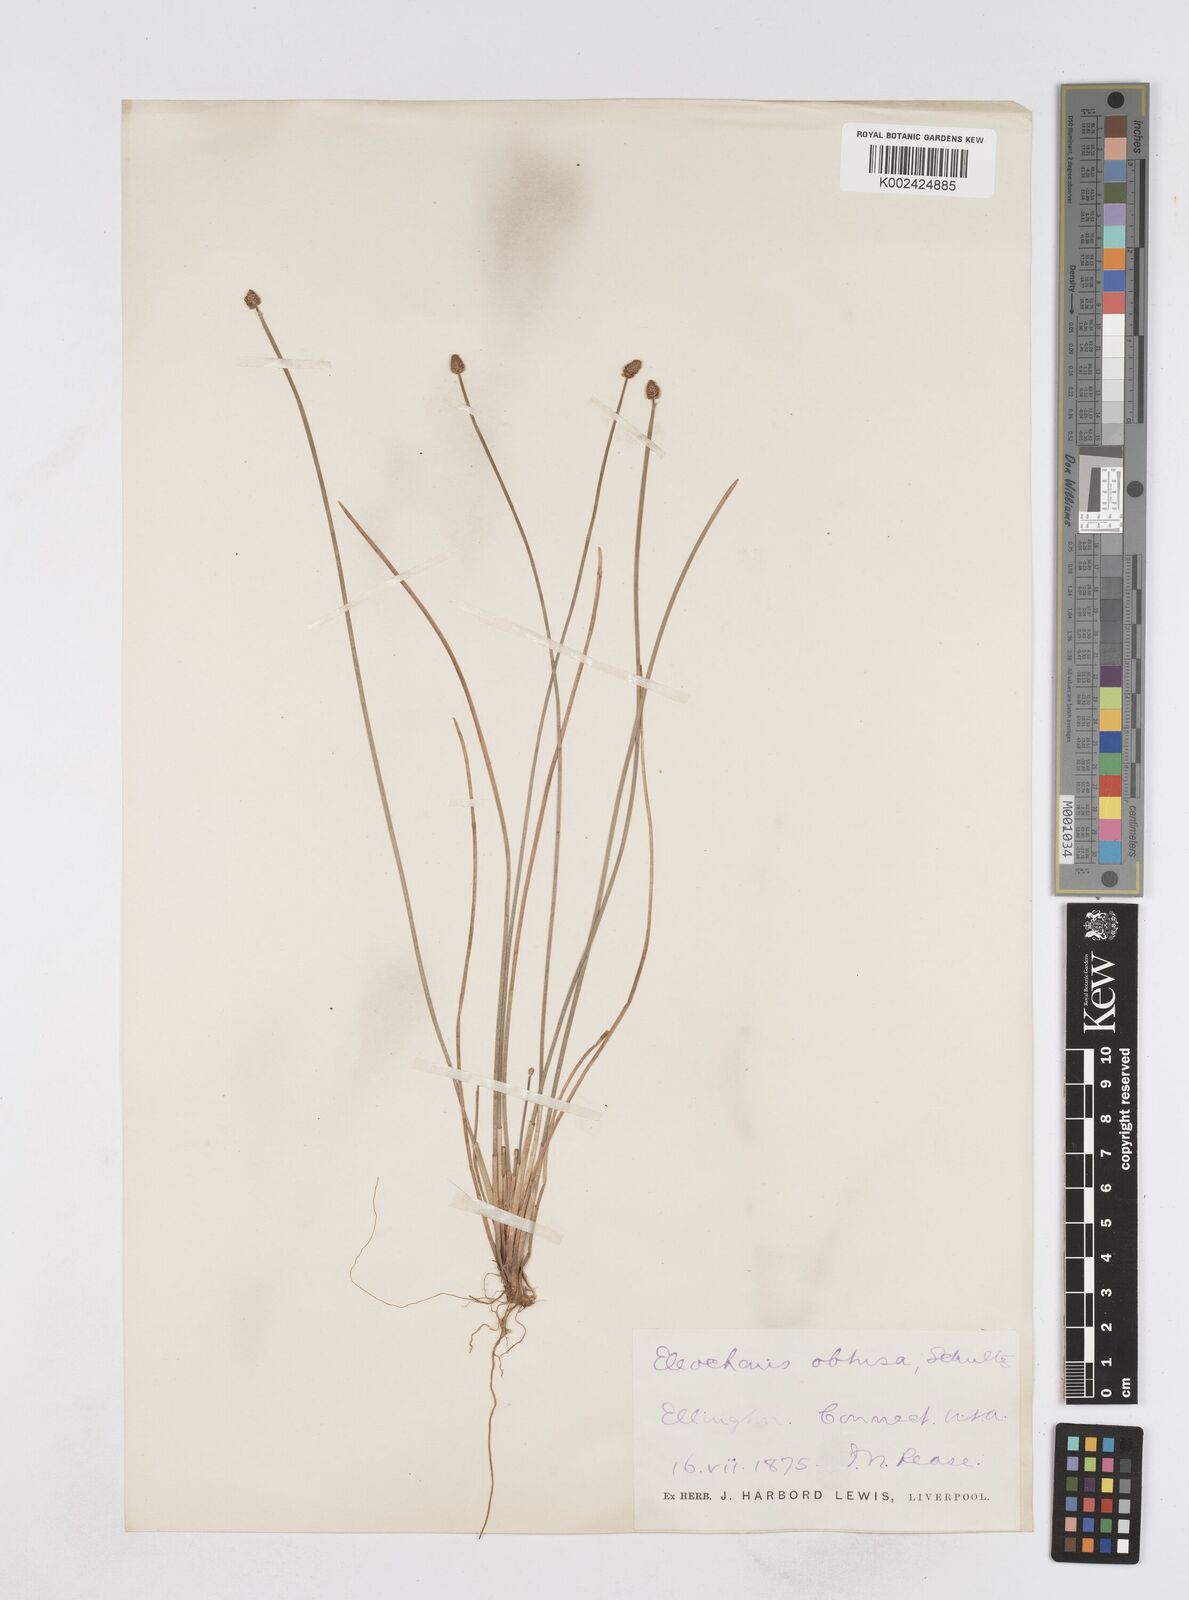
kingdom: Plantae
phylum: Tracheophyta
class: Liliopsida
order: Poales
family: Cyperaceae
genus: Eleocharis
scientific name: Eleocharis obtusa
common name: Blunt spikerush
